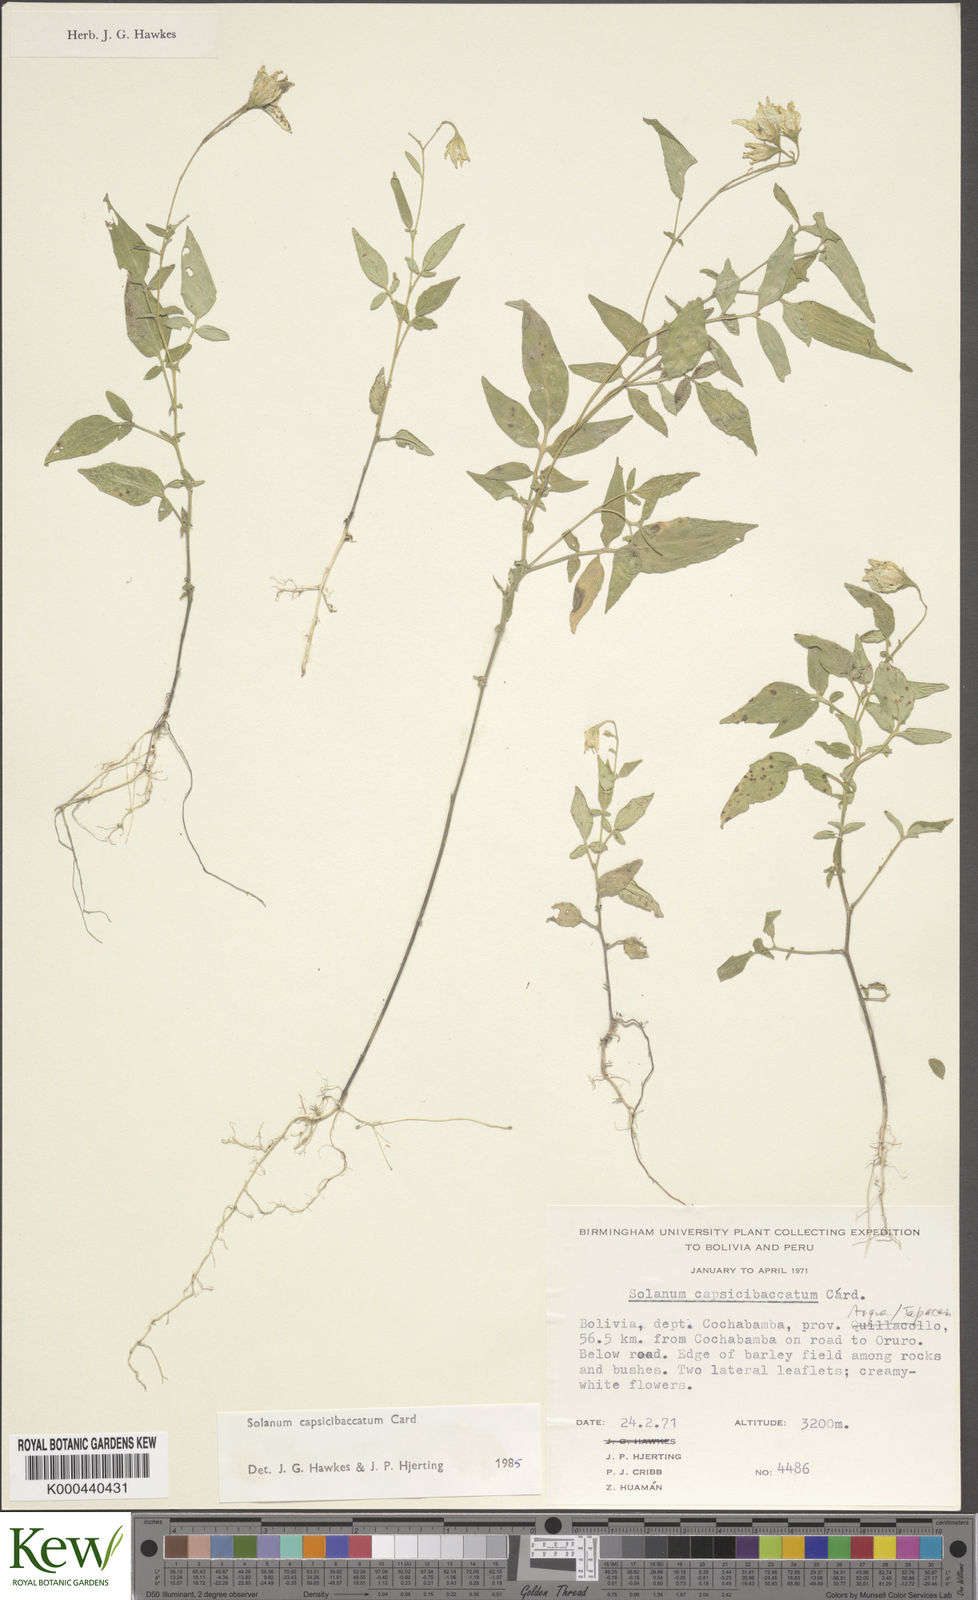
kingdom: Plantae
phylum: Tracheophyta
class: Magnoliopsida
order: Solanales
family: Solanaceae
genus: Solanum
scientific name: Solanum stipuloideum
